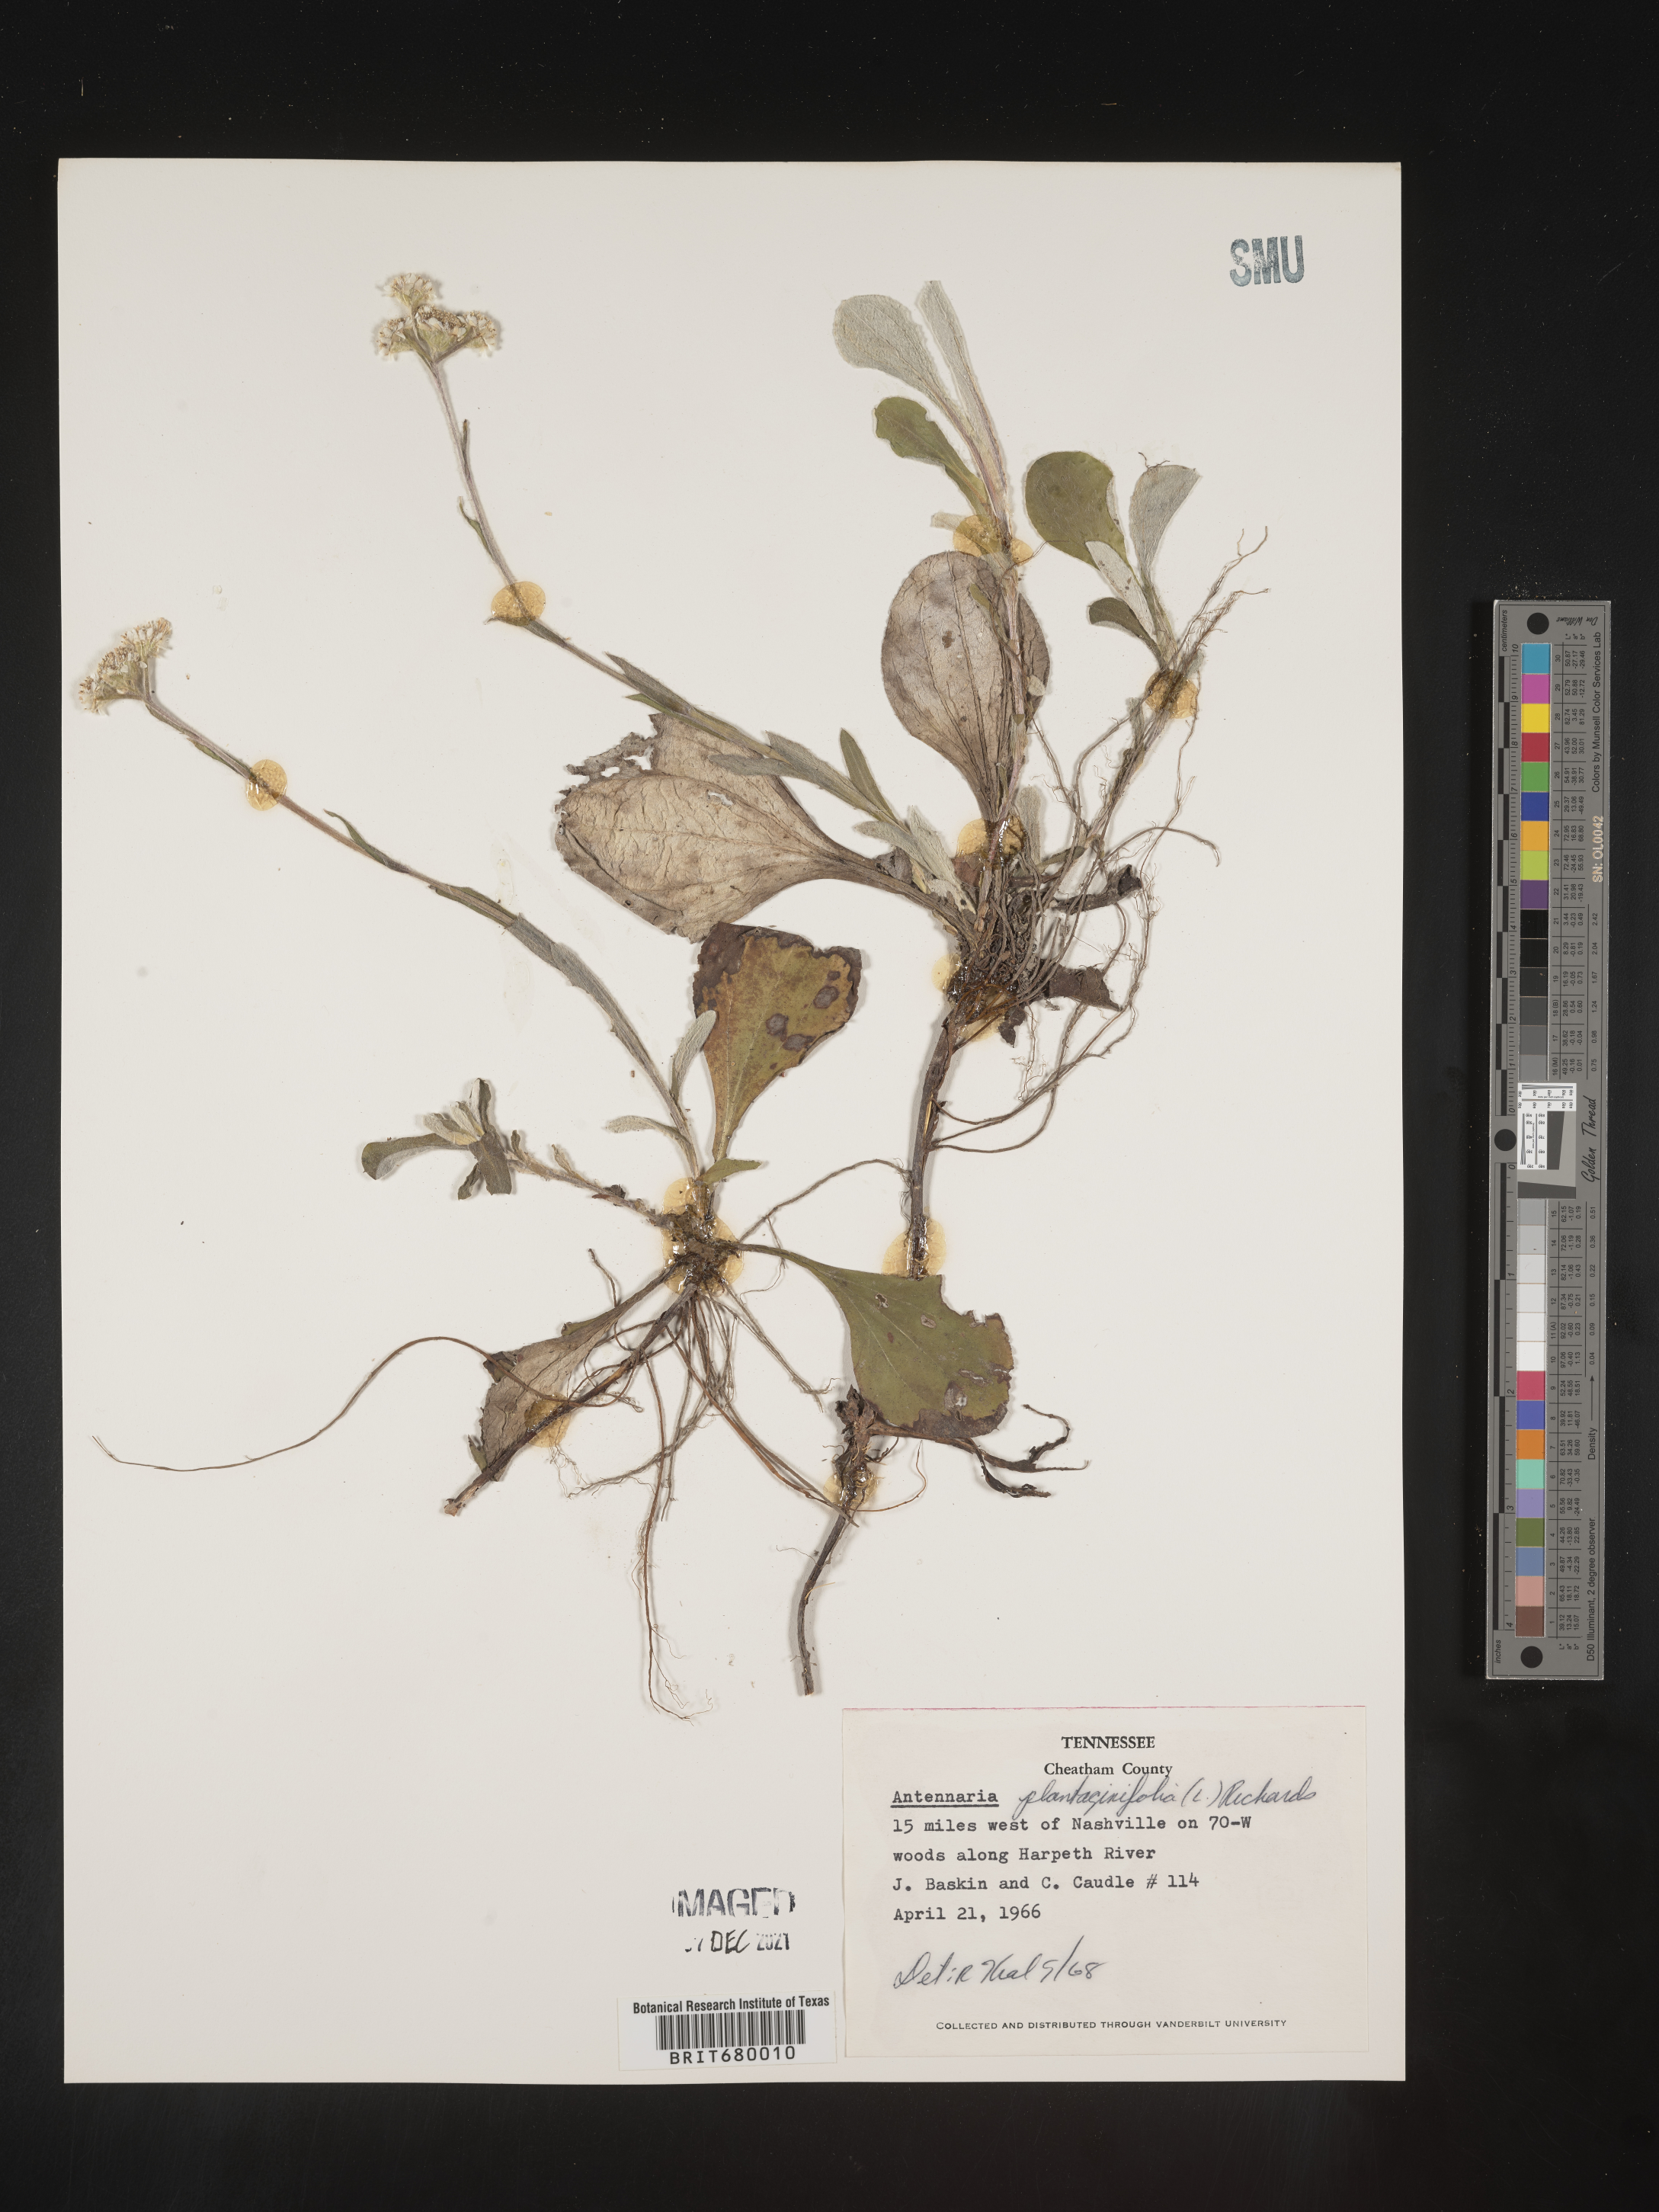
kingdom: Plantae
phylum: Tracheophyta
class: Magnoliopsida
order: Asterales
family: Asteraceae
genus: Antennaria
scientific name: Antennaria plantaginifolia
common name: Plantain-leaved pussytoes
